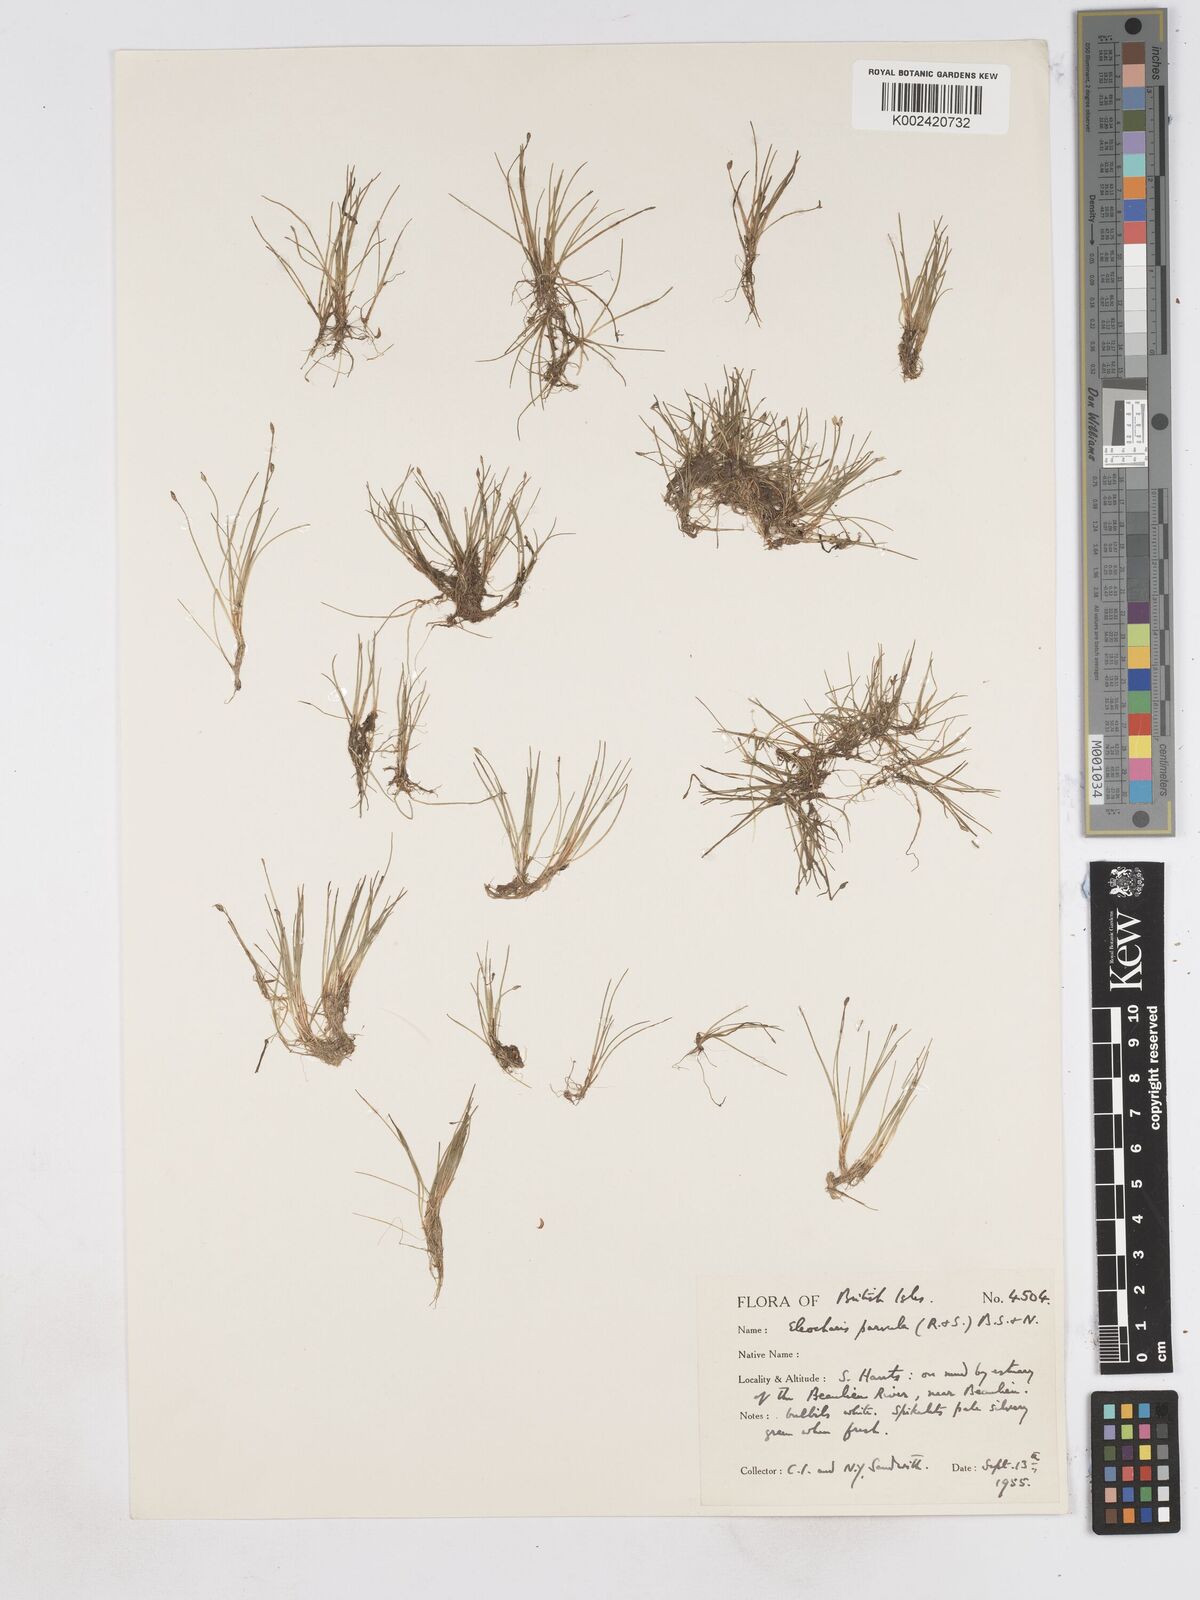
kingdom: Plantae
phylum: Tracheophyta
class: Liliopsida
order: Poales
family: Cyperaceae
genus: Eleocharis
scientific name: Eleocharis parvula
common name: Dwarf spike-rush
